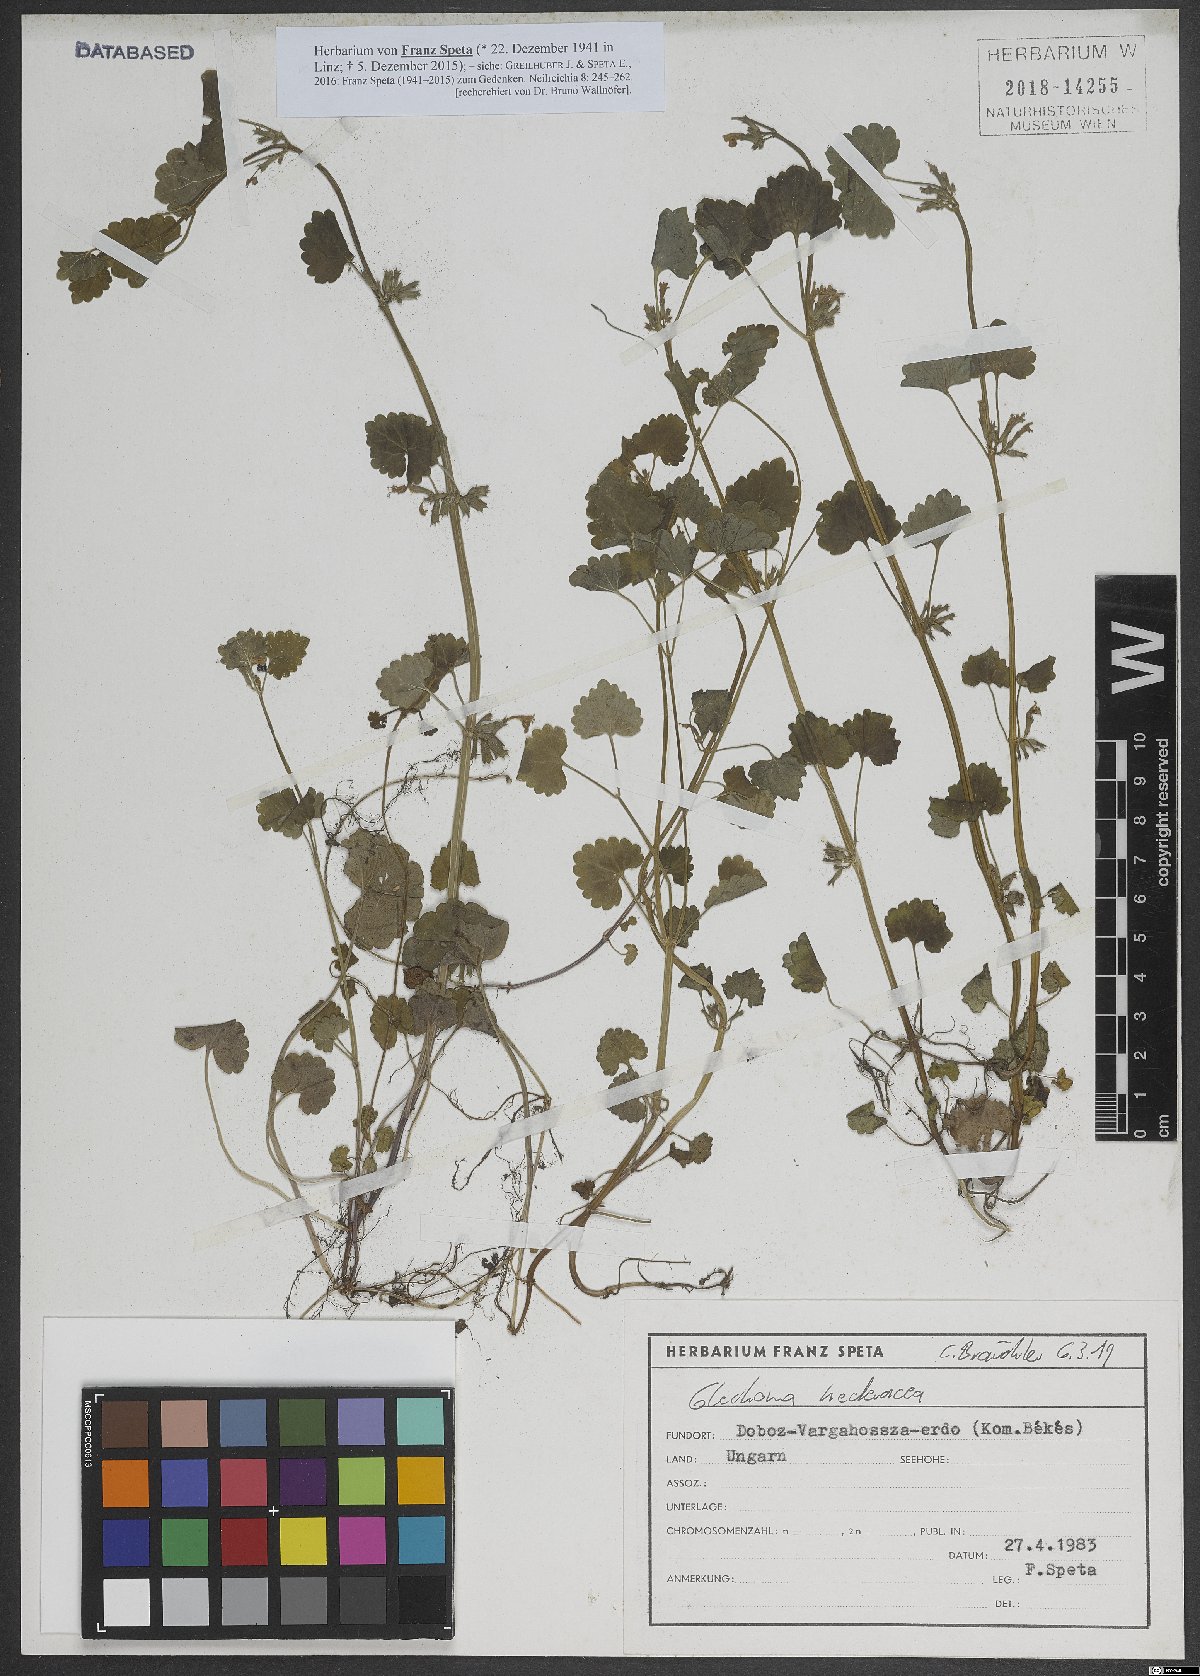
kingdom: Plantae
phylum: Tracheophyta
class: Magnoliopsida
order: Lamiales
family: Lamiaceae
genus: Glechoma
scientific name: Glechoma hederacea
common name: Ground ivy
